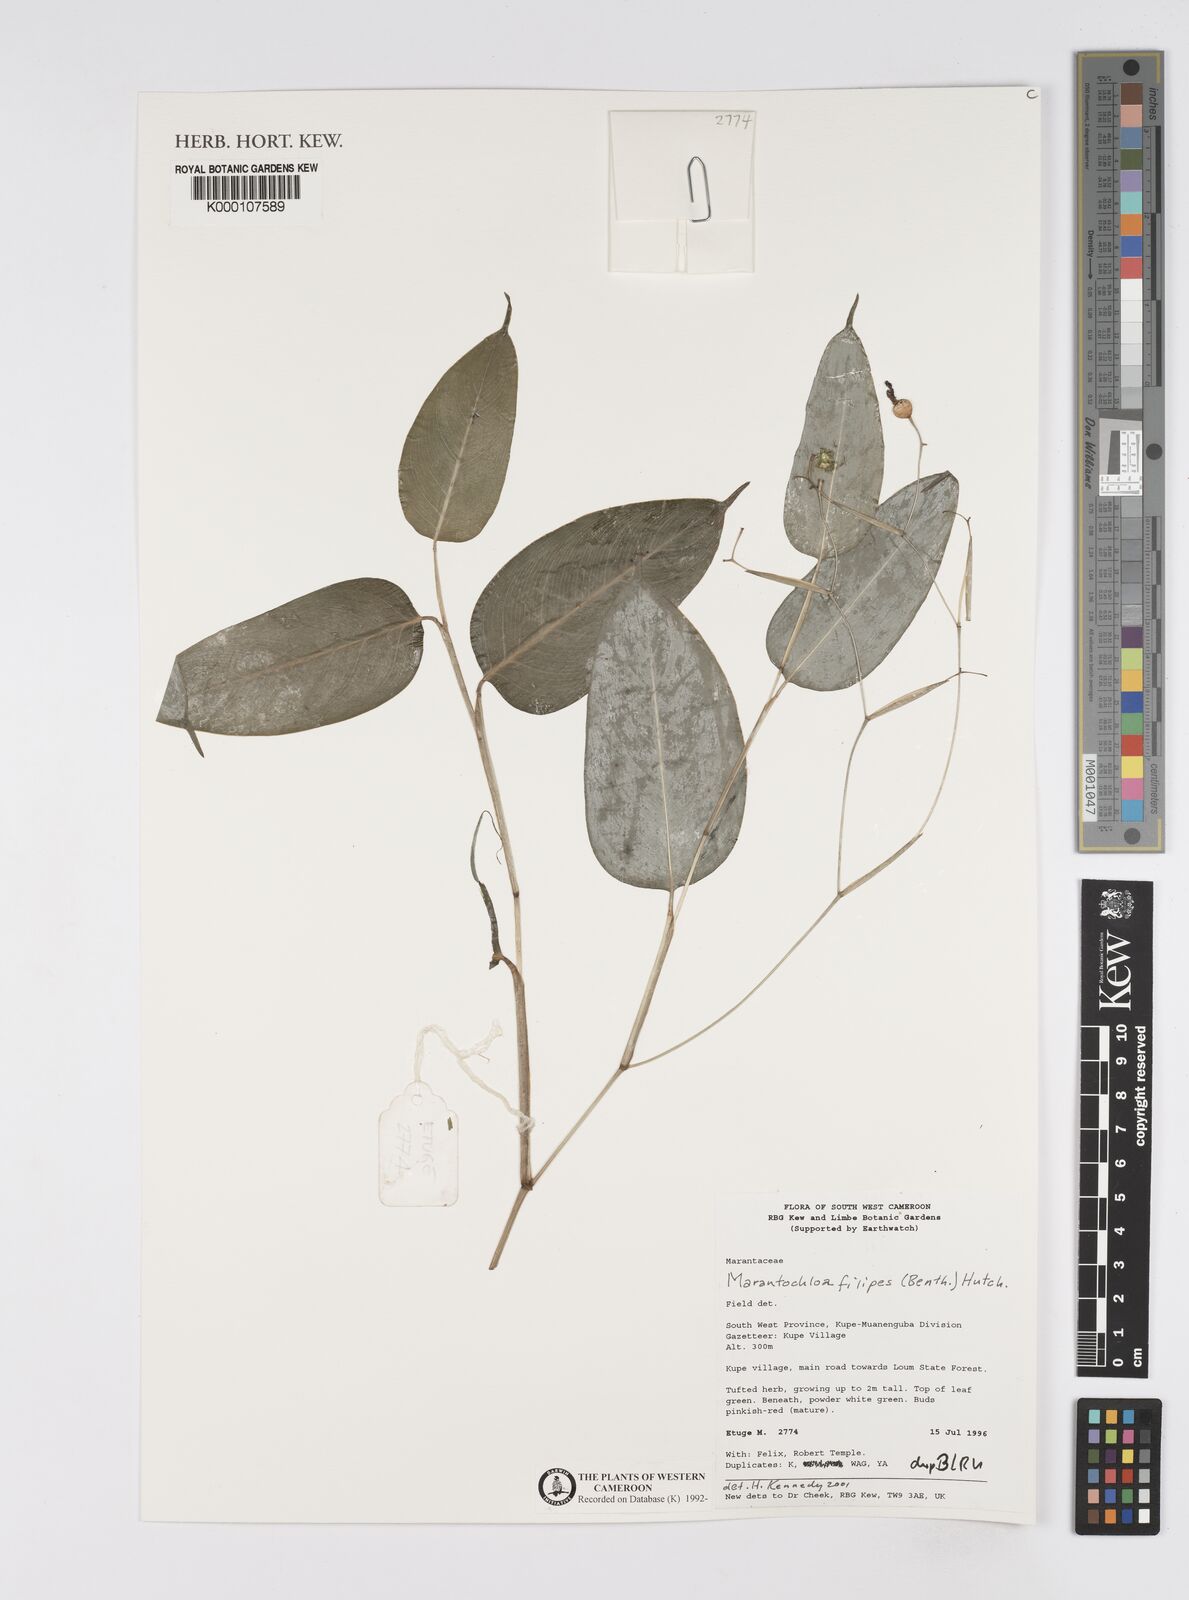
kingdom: Plantae
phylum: Tracheophyta
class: Liliopsida
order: Zingiberales
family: Marantaceae
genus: Marantochloa
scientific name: Marantochloa filipes
